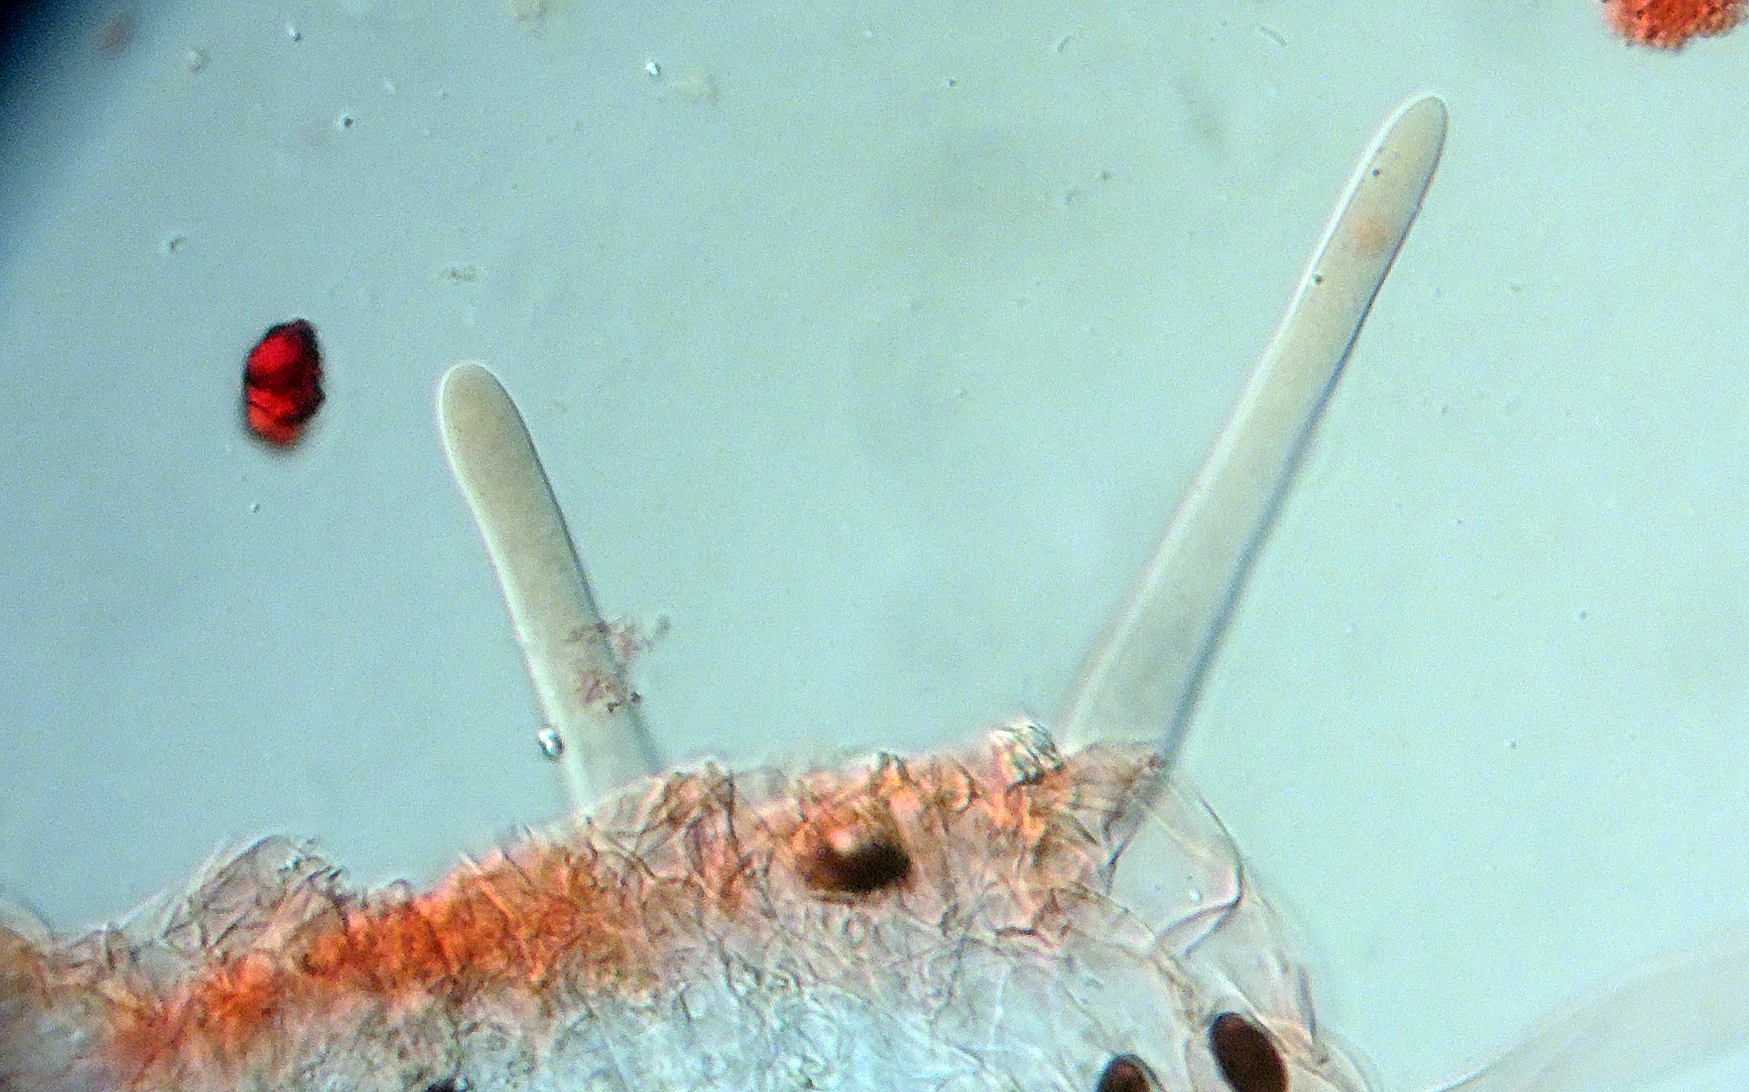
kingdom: Fungi
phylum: Basidiomycota
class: Agaricomycetes
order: Agaricales
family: Psathyrellaceae
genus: Tulosesus
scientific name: Tulosesus bisporus
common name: tosporet blækhat
